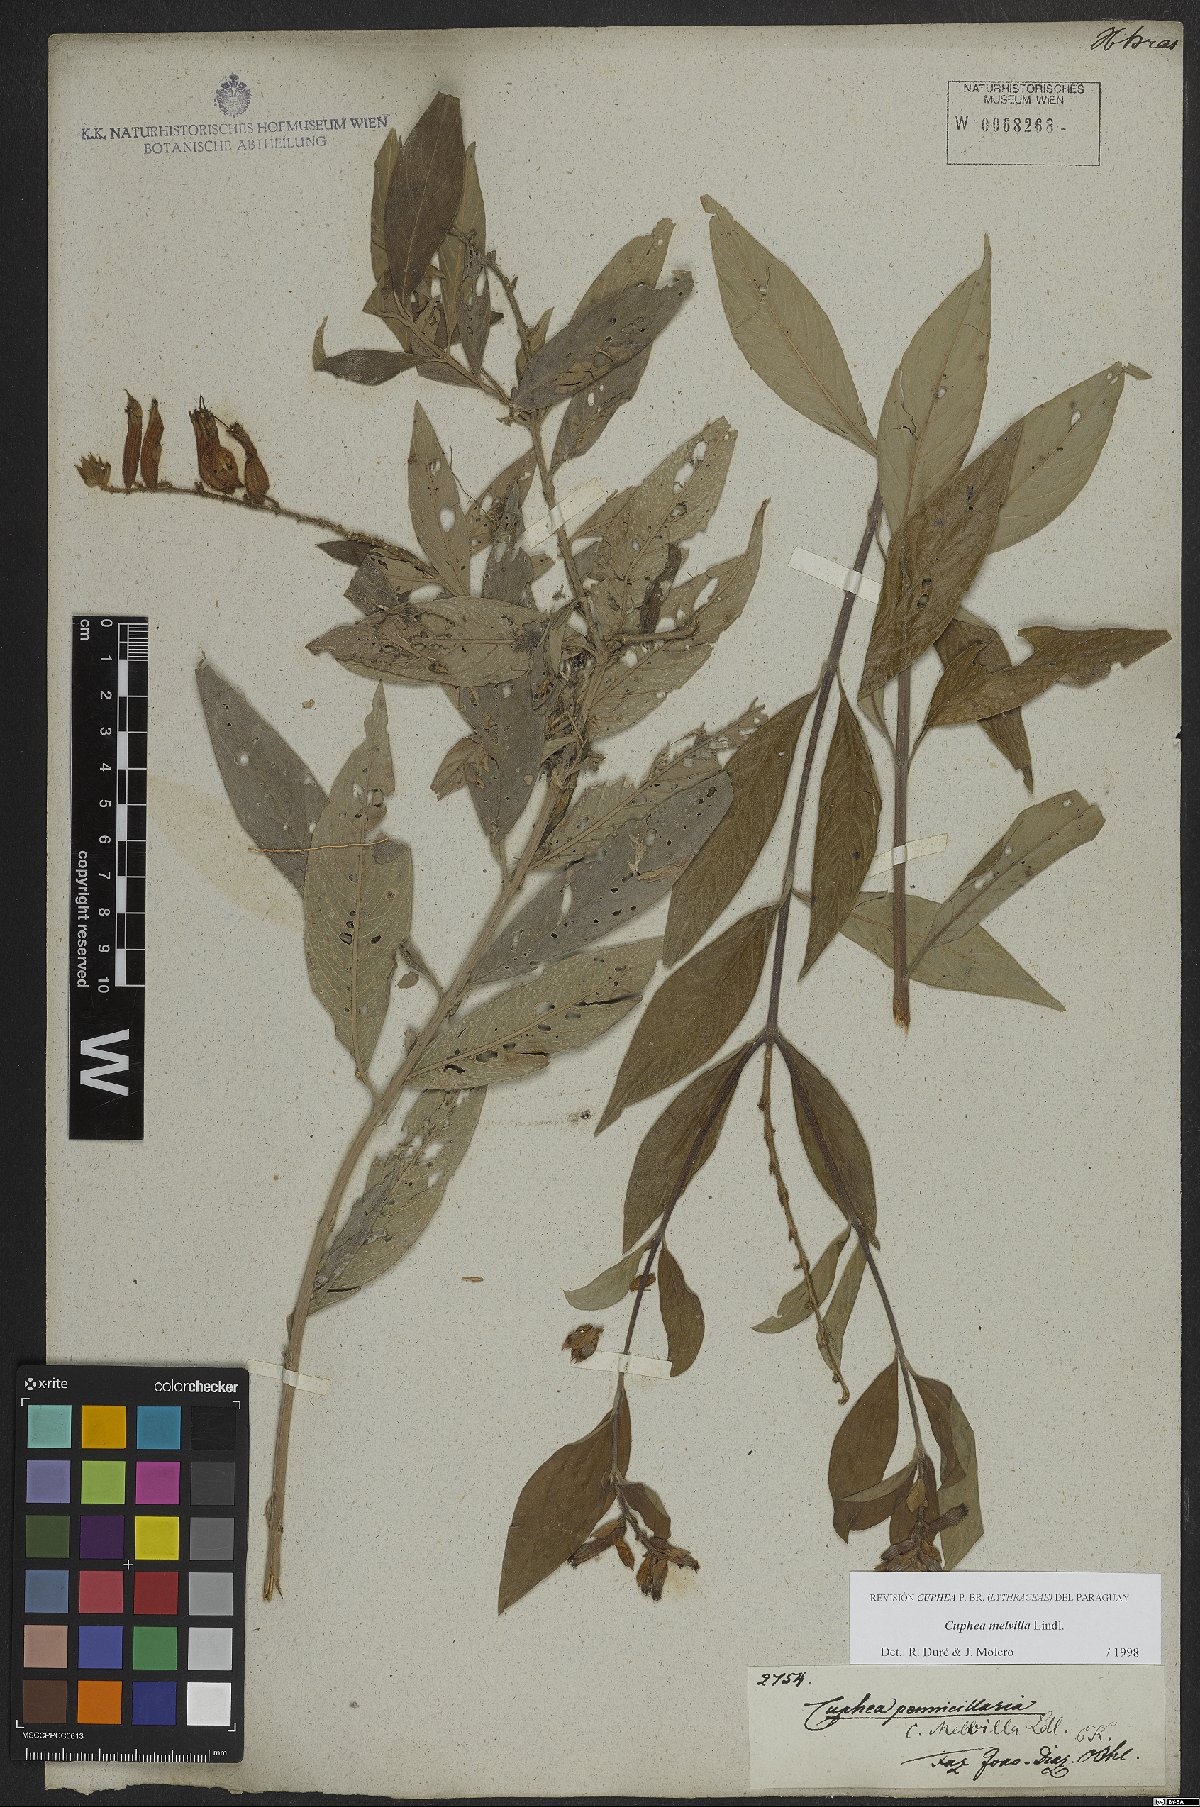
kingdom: Plantae
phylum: Tracheophyta
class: Magnoliopsida
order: Myrtales
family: Lythraceae
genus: Cuphea
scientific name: Cuphea melvilla
